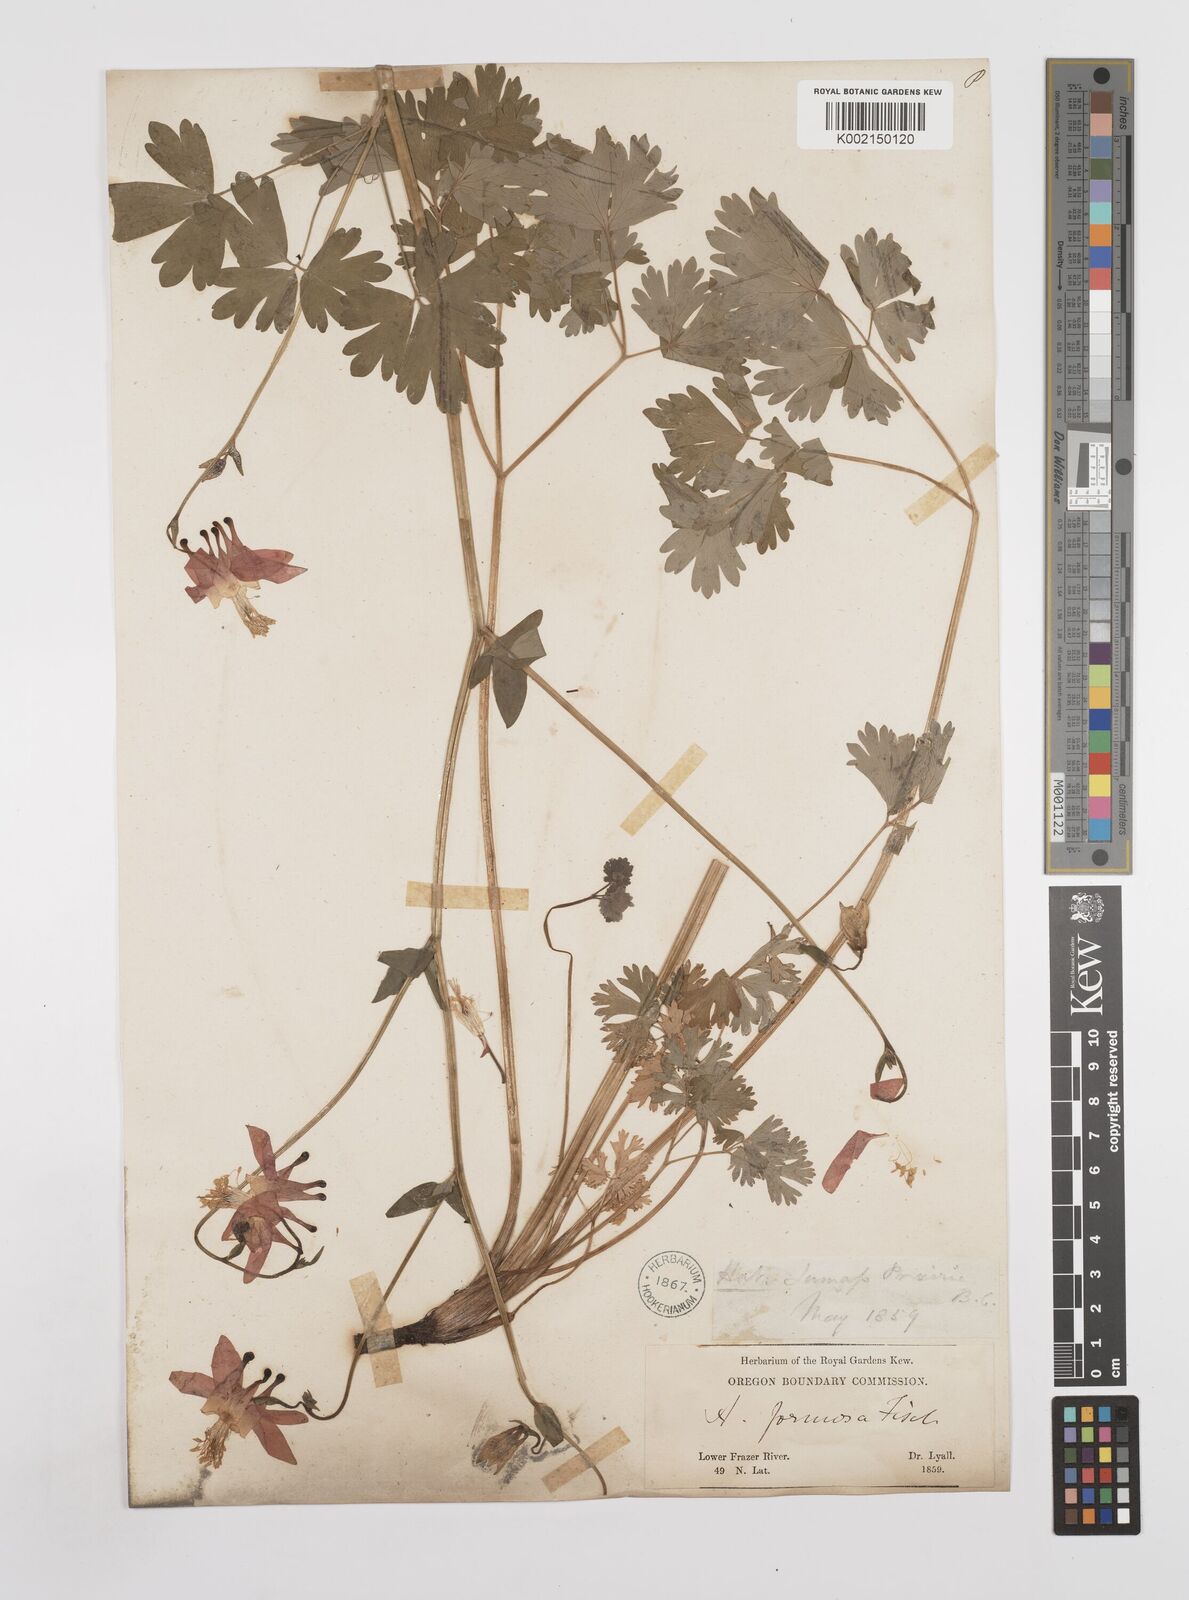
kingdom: Plantae
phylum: Tracheophyta
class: Magnoliopsida
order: Ranunculales
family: Ranunculaceae
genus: Aquilegia
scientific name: Aquilegia
